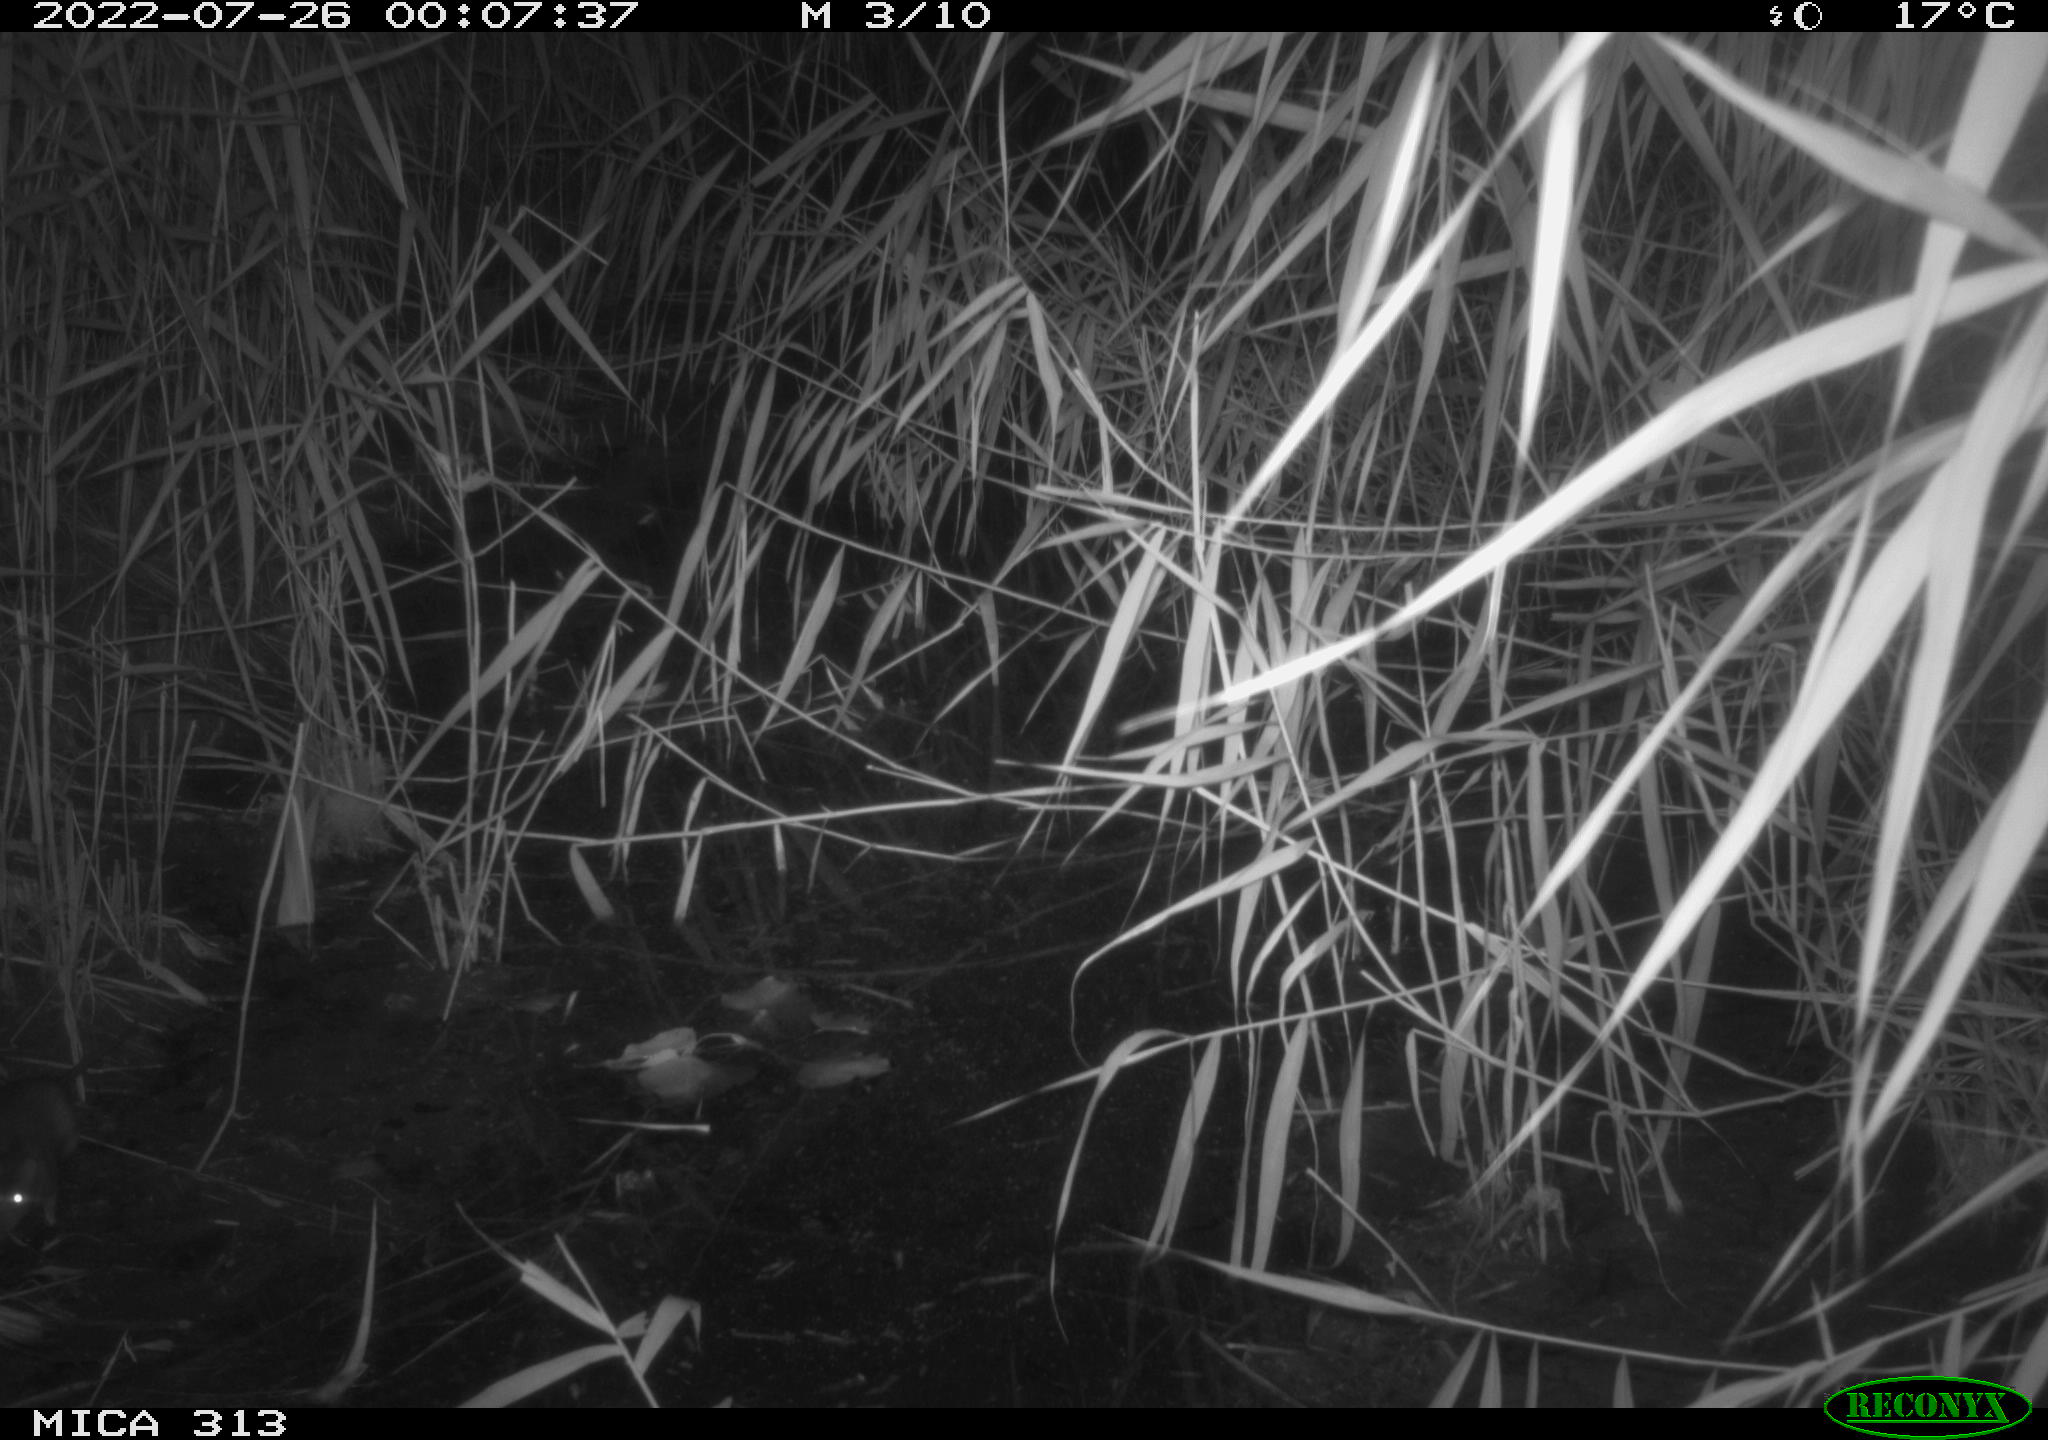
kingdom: Animalia
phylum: Chordata
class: Mammalia
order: Rodentia
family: Muridae
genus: Rattus
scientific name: Rattus norvegicus
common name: Brown rat
